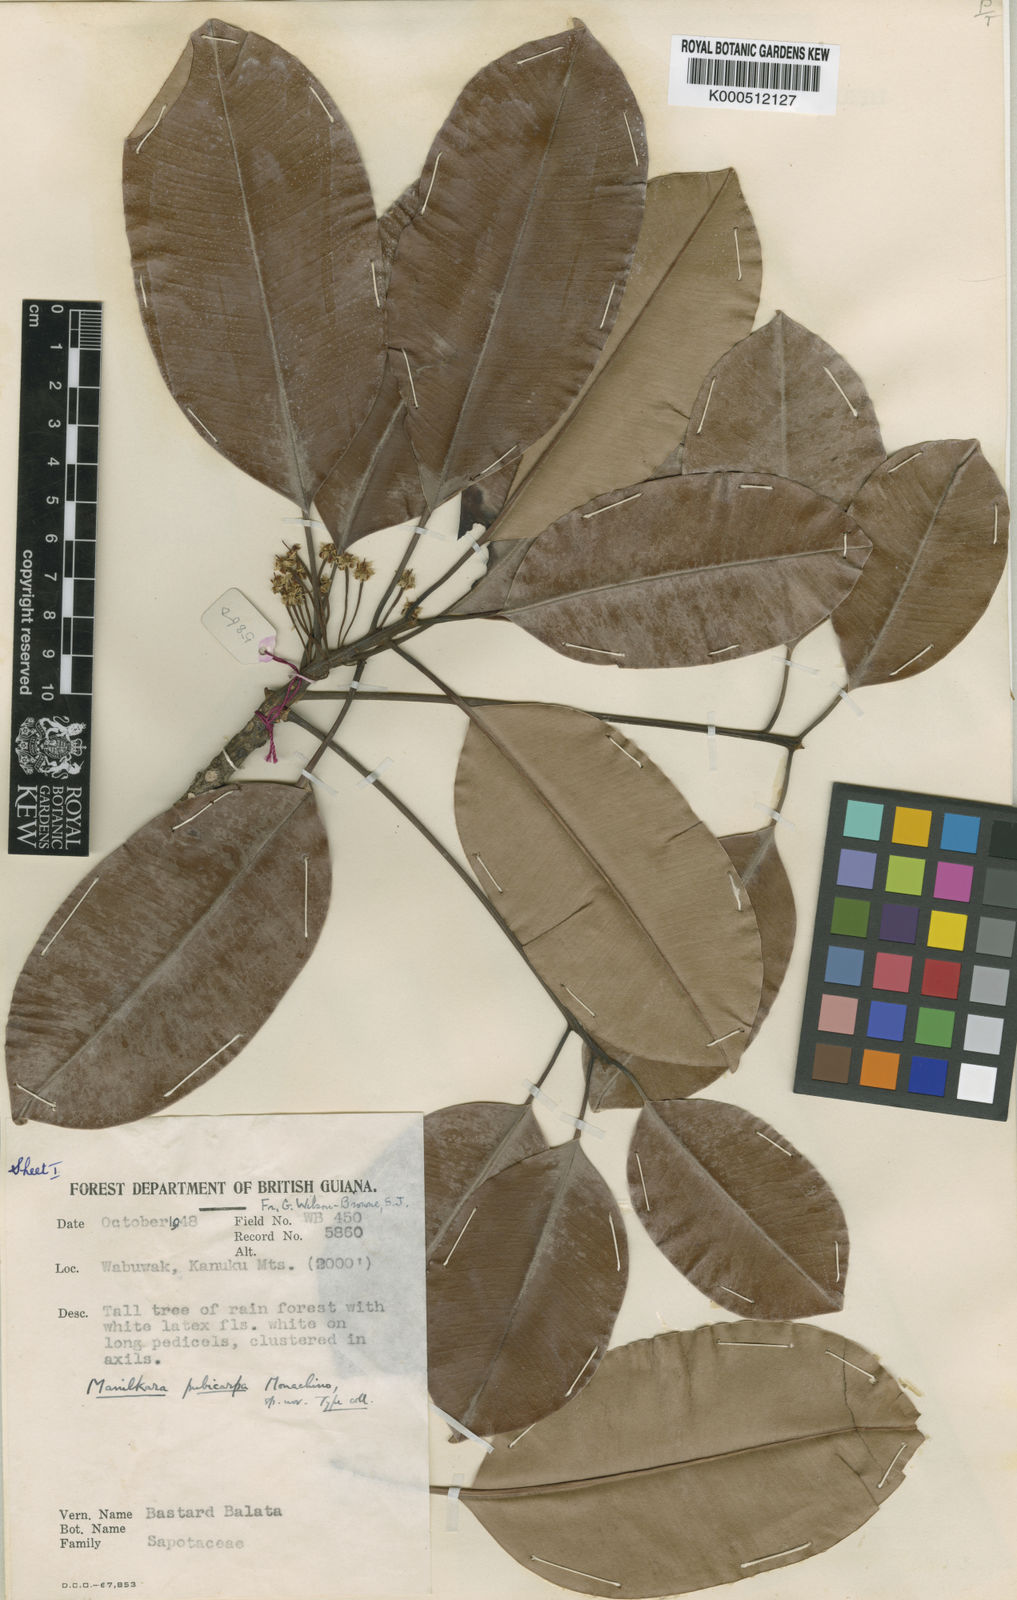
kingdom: Plantae
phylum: Tracheophyta
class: Magnoliopsida
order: Ericales
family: Sapotaceae
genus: Manilkara
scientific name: Manilkara pubicarpa
